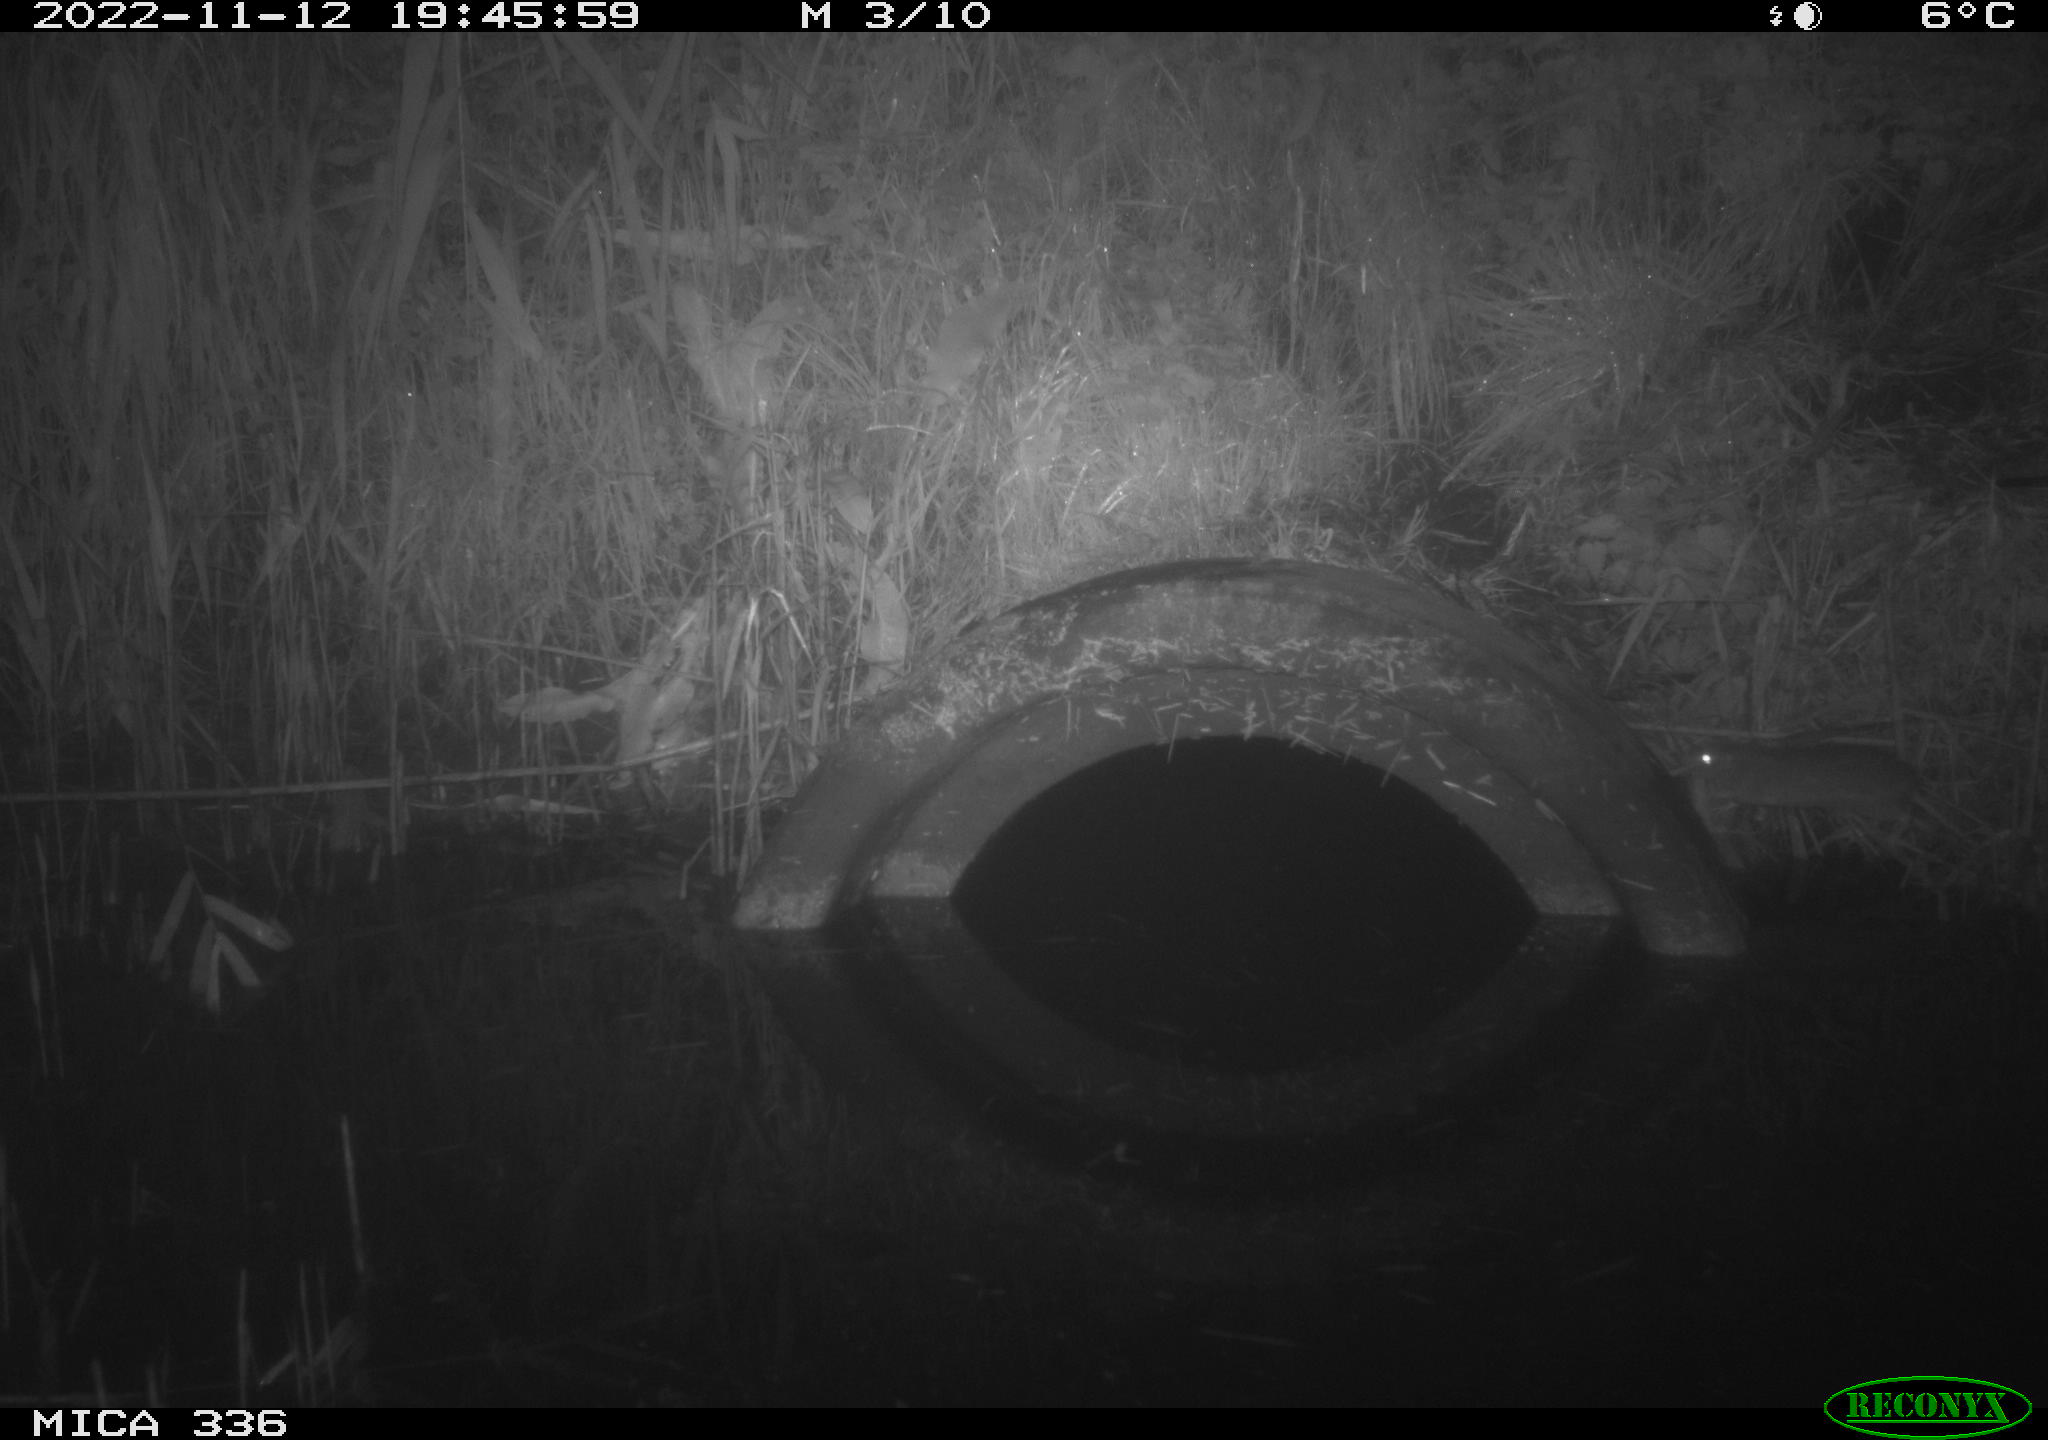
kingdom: Animalia
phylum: Chordata
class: Mammalia
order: Rodentia
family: Muridae
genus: Rattus
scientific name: Rattus norvegicus
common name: Brown rat
